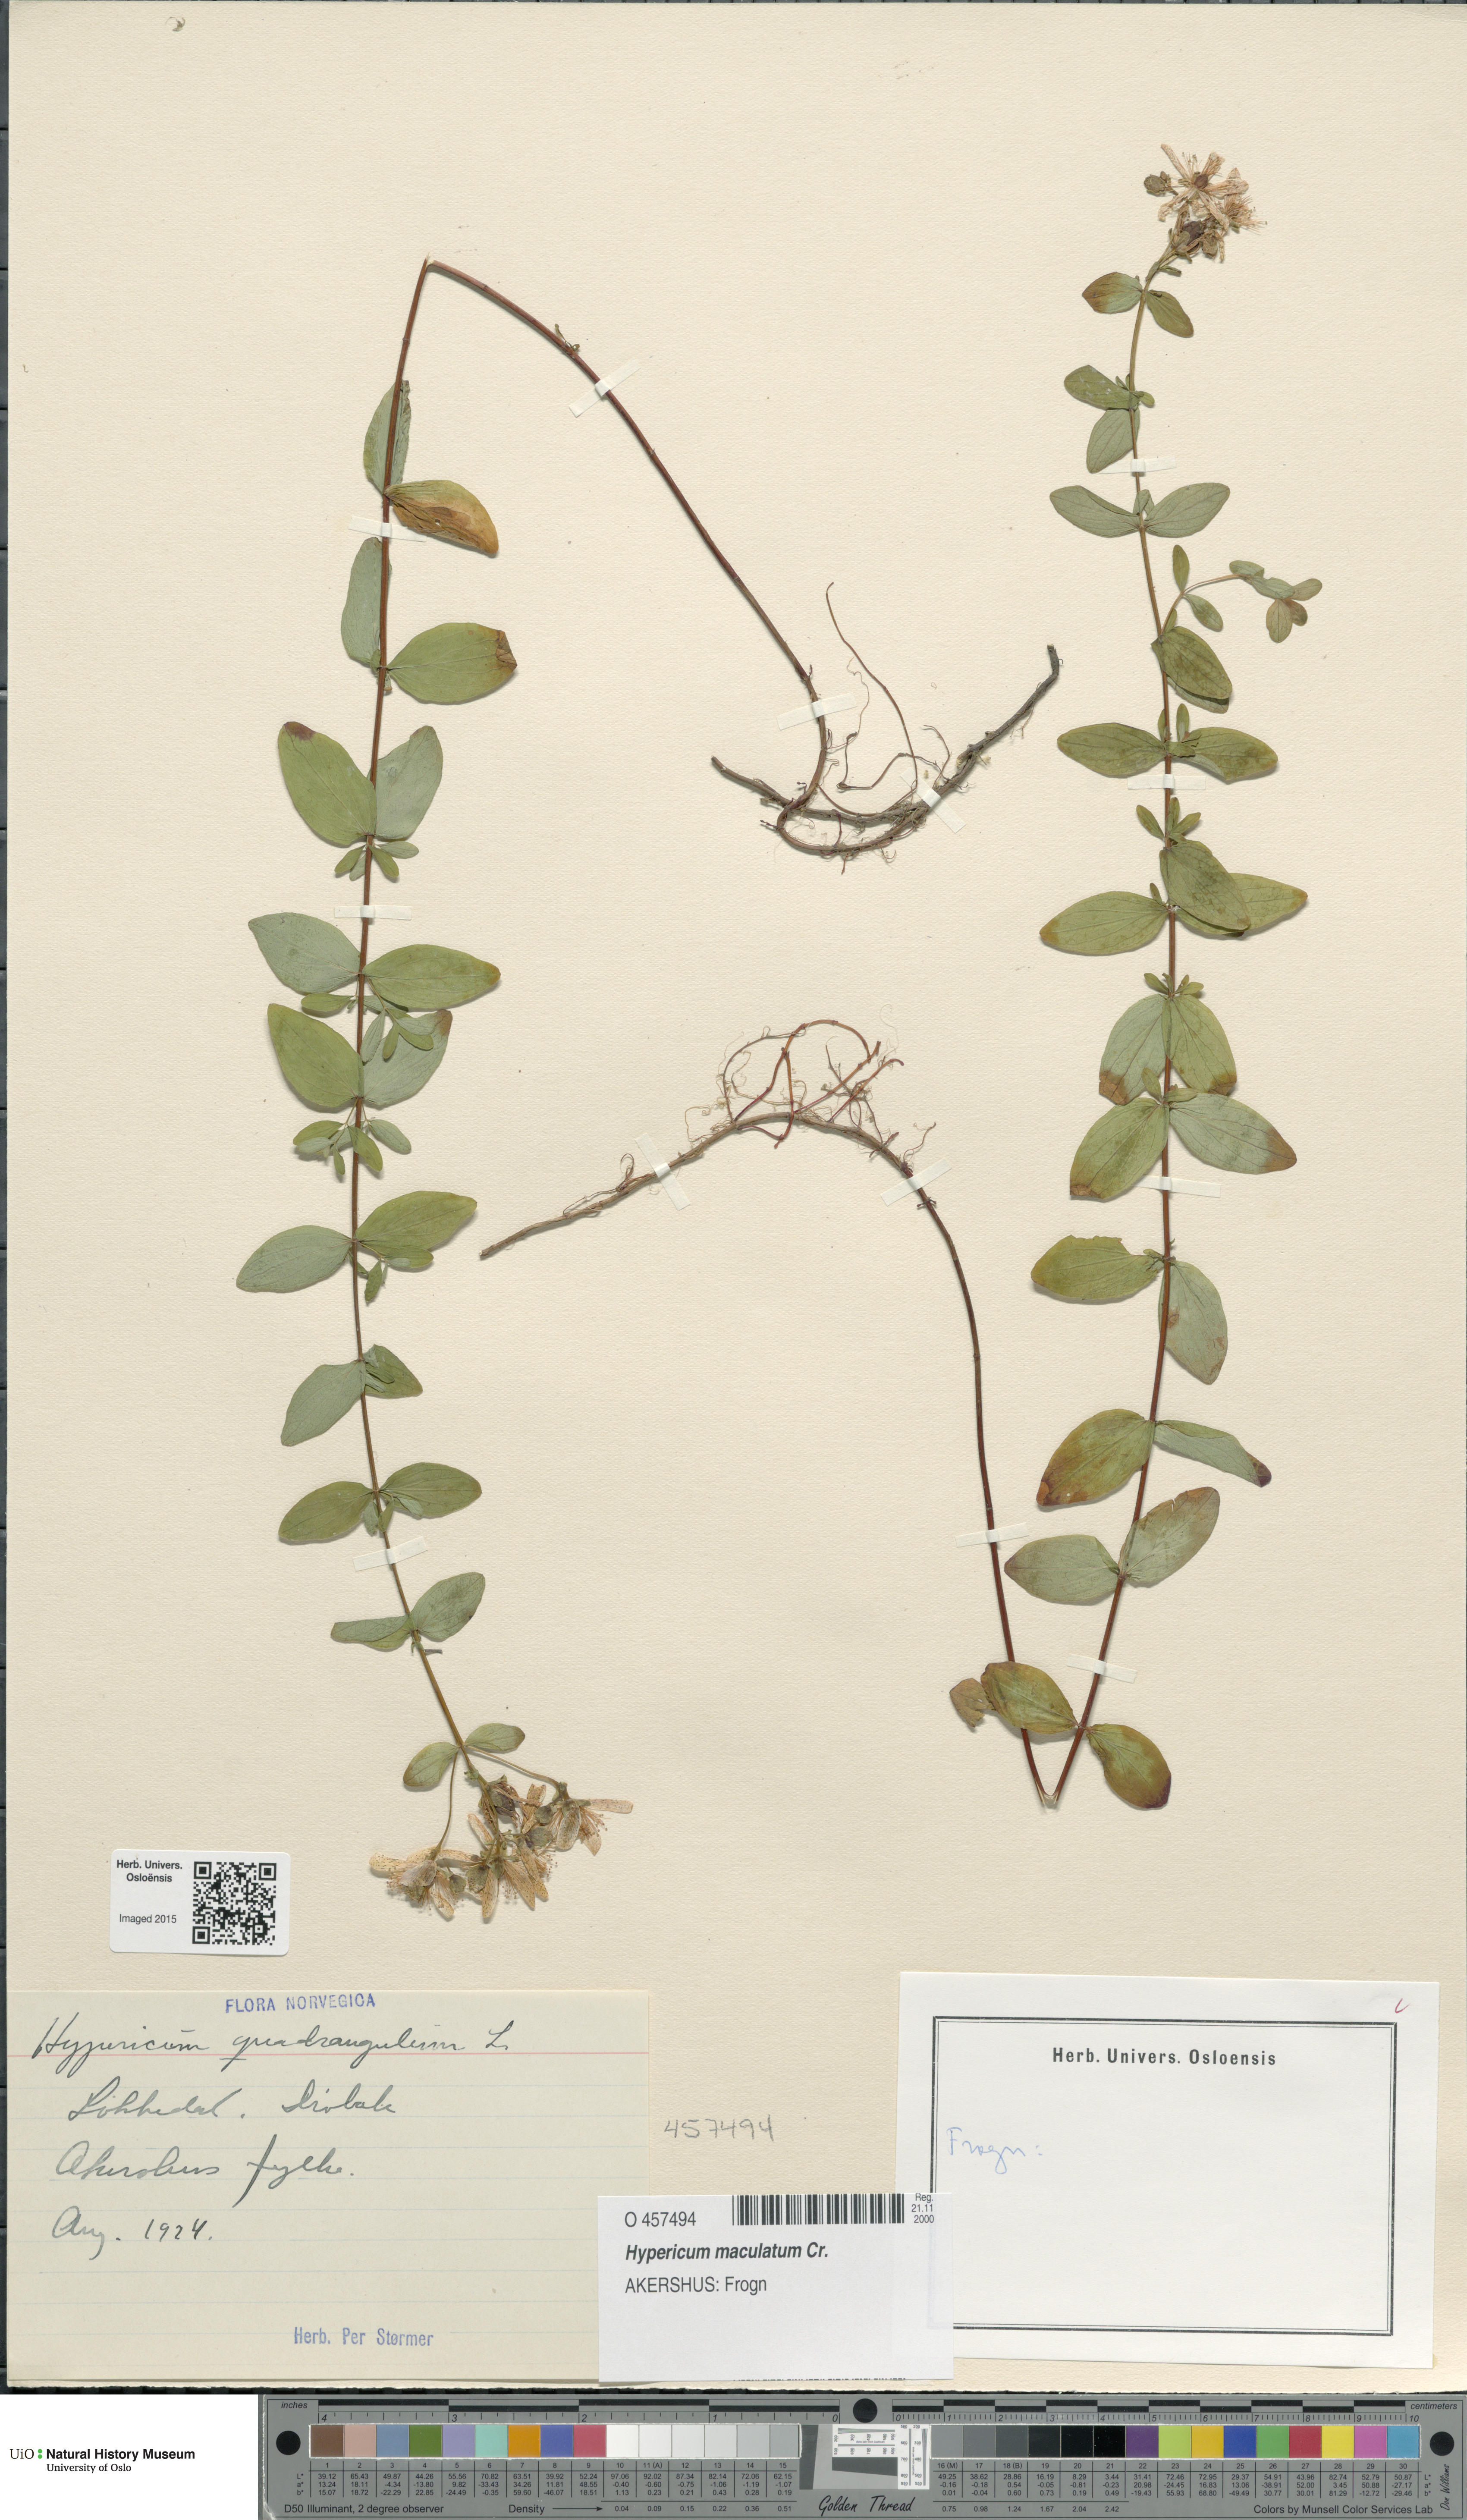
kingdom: Plantae
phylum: Tracheophyta
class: Magnoliopsida
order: Malpighiales
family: Hypericaceae
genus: Hypericum
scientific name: Hypericum maculatum
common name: Imperforate st. john's-wort
